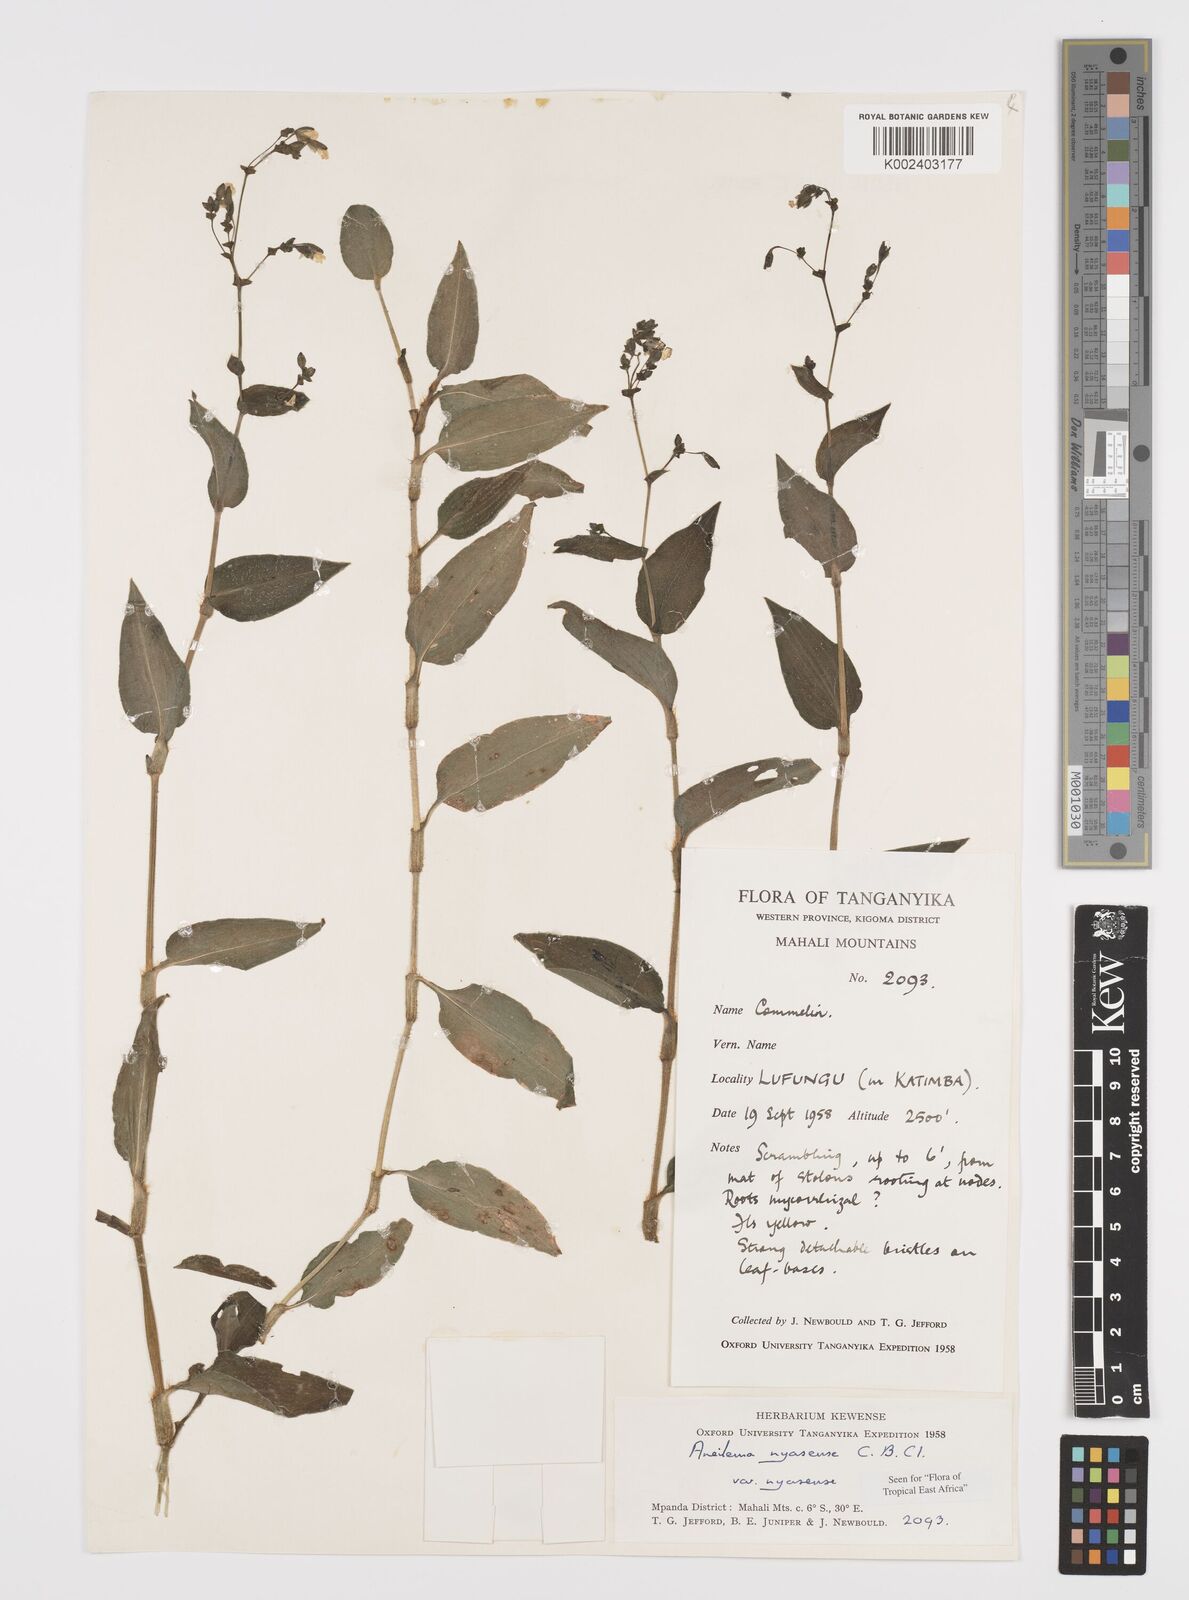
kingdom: Plantae
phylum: Tracheophyta
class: Liliopsida
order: Commelinales
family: Commelinaceae
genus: Aneilema
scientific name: Aneilema nyasense
